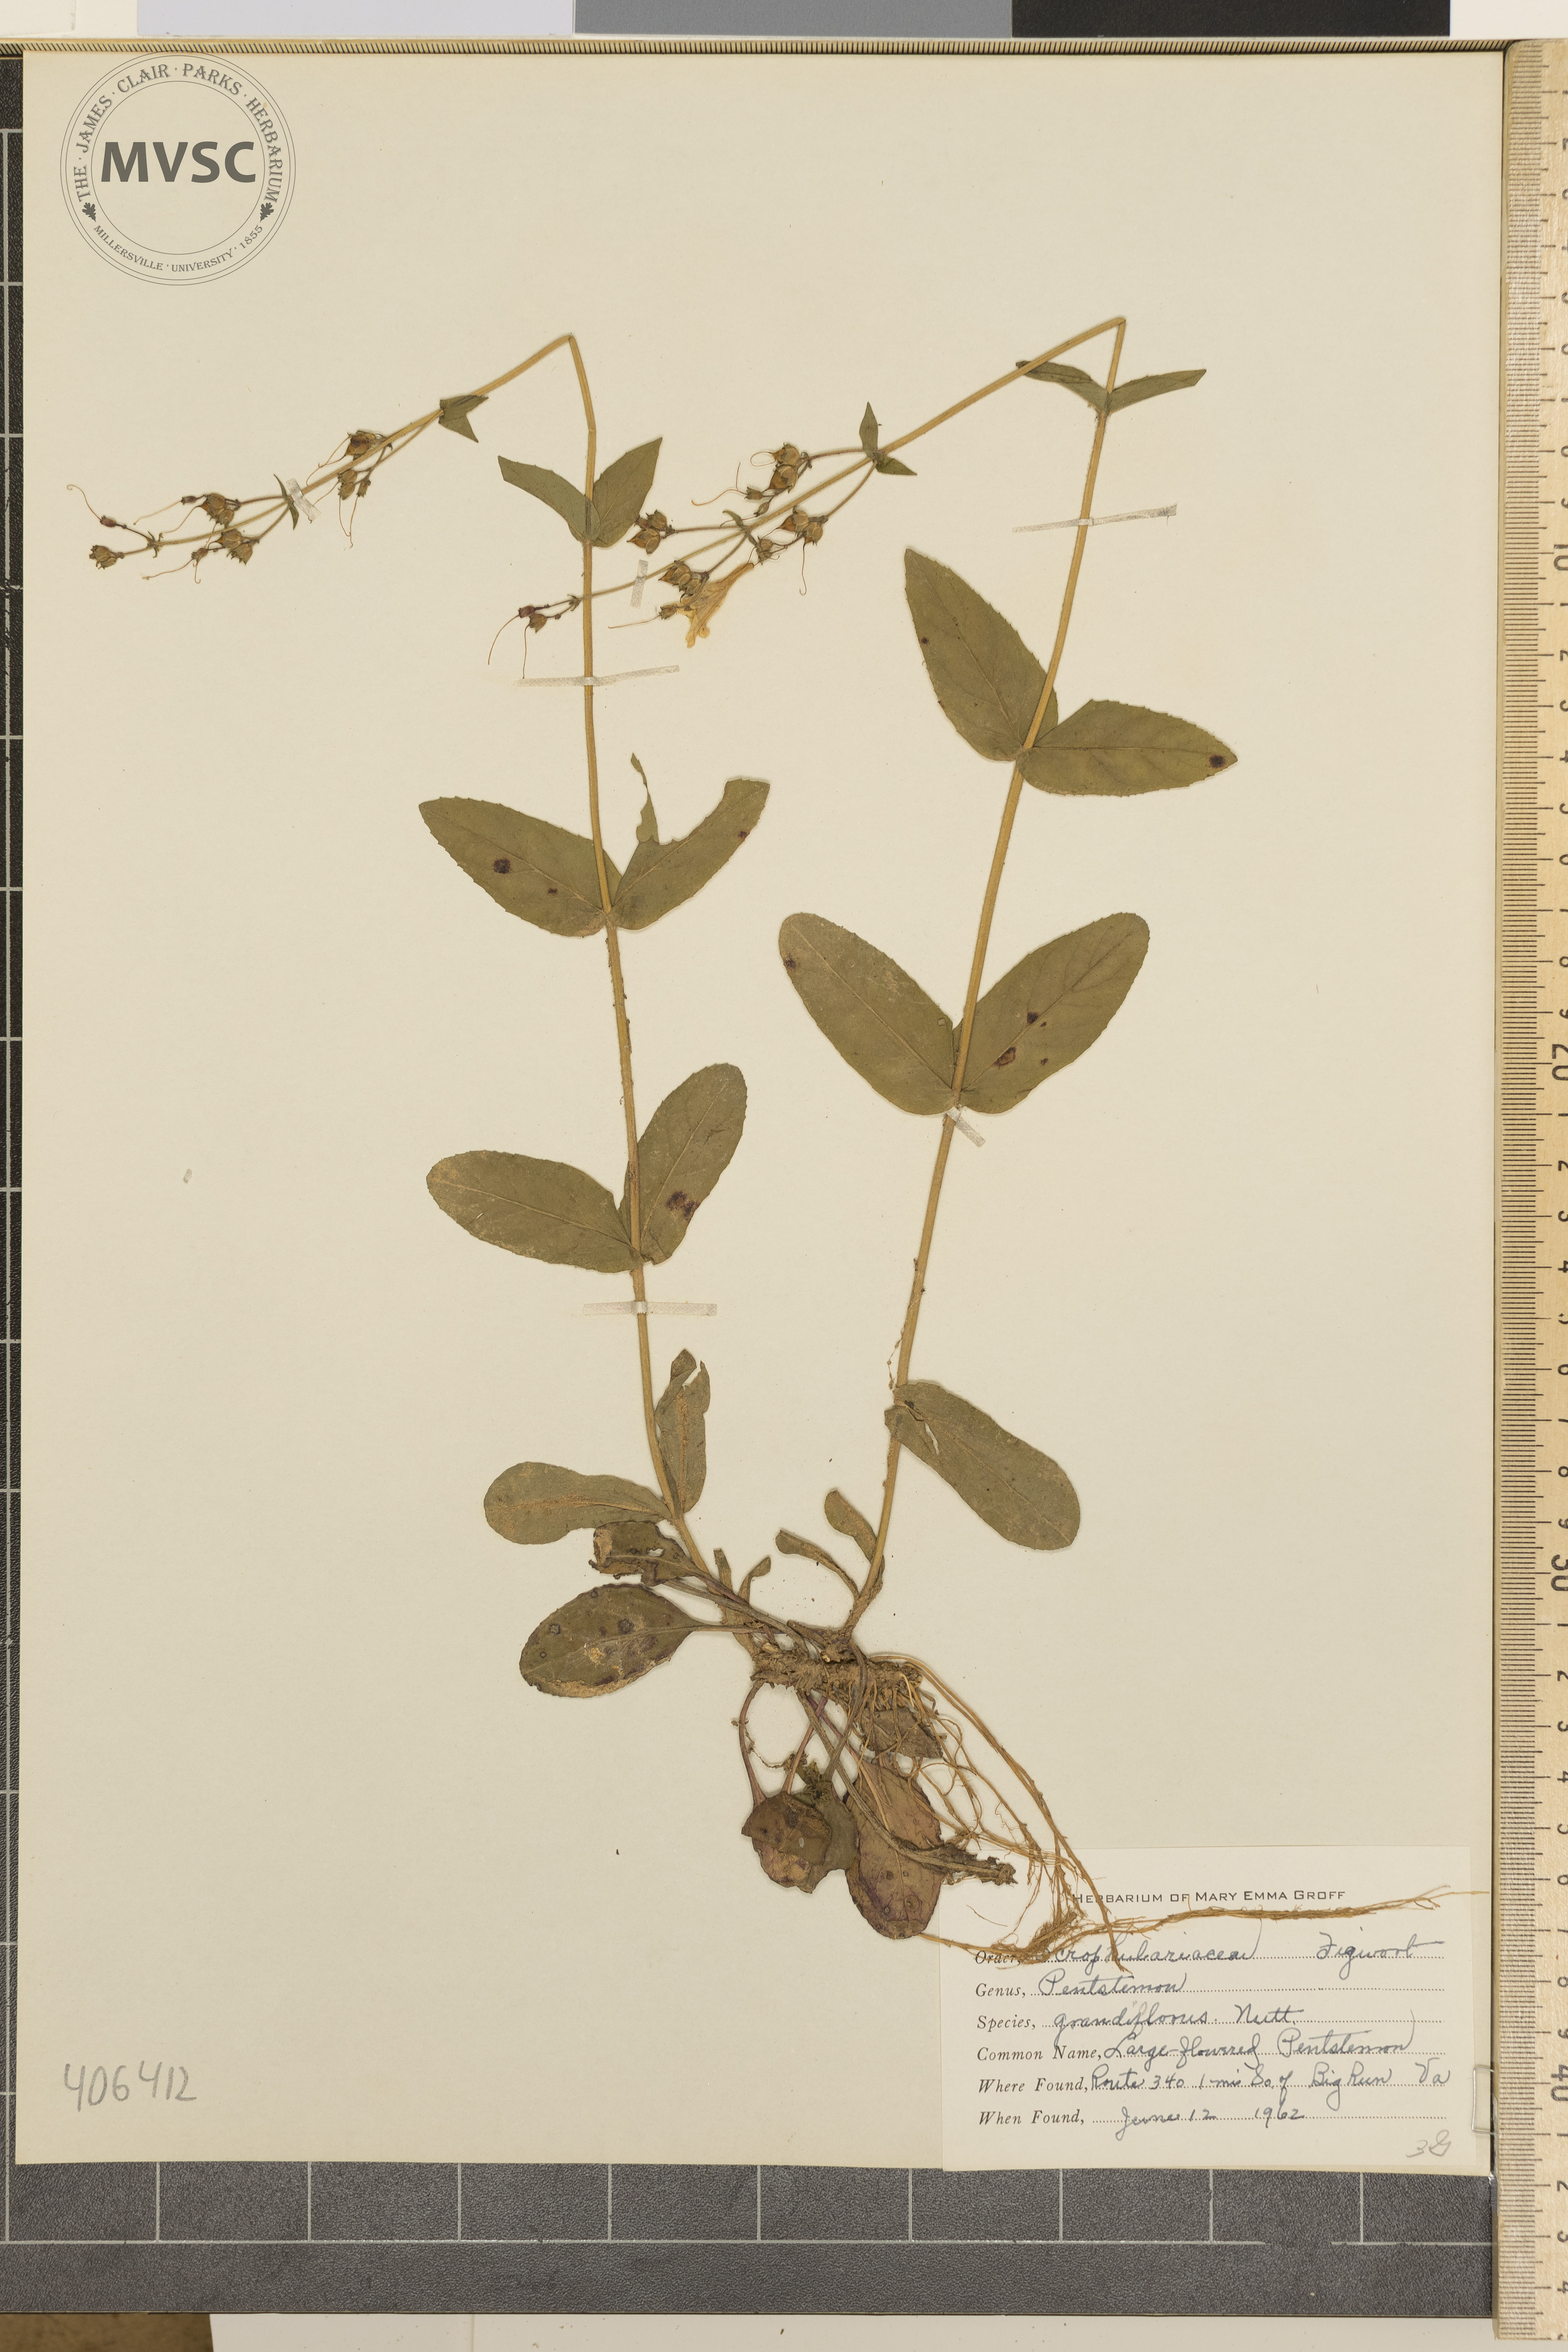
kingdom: Plantae
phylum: Tracheophyta
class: Magnoliopsida
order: Lamiales
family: Plantaginaceae
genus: Penstemon
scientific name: Penstemon
